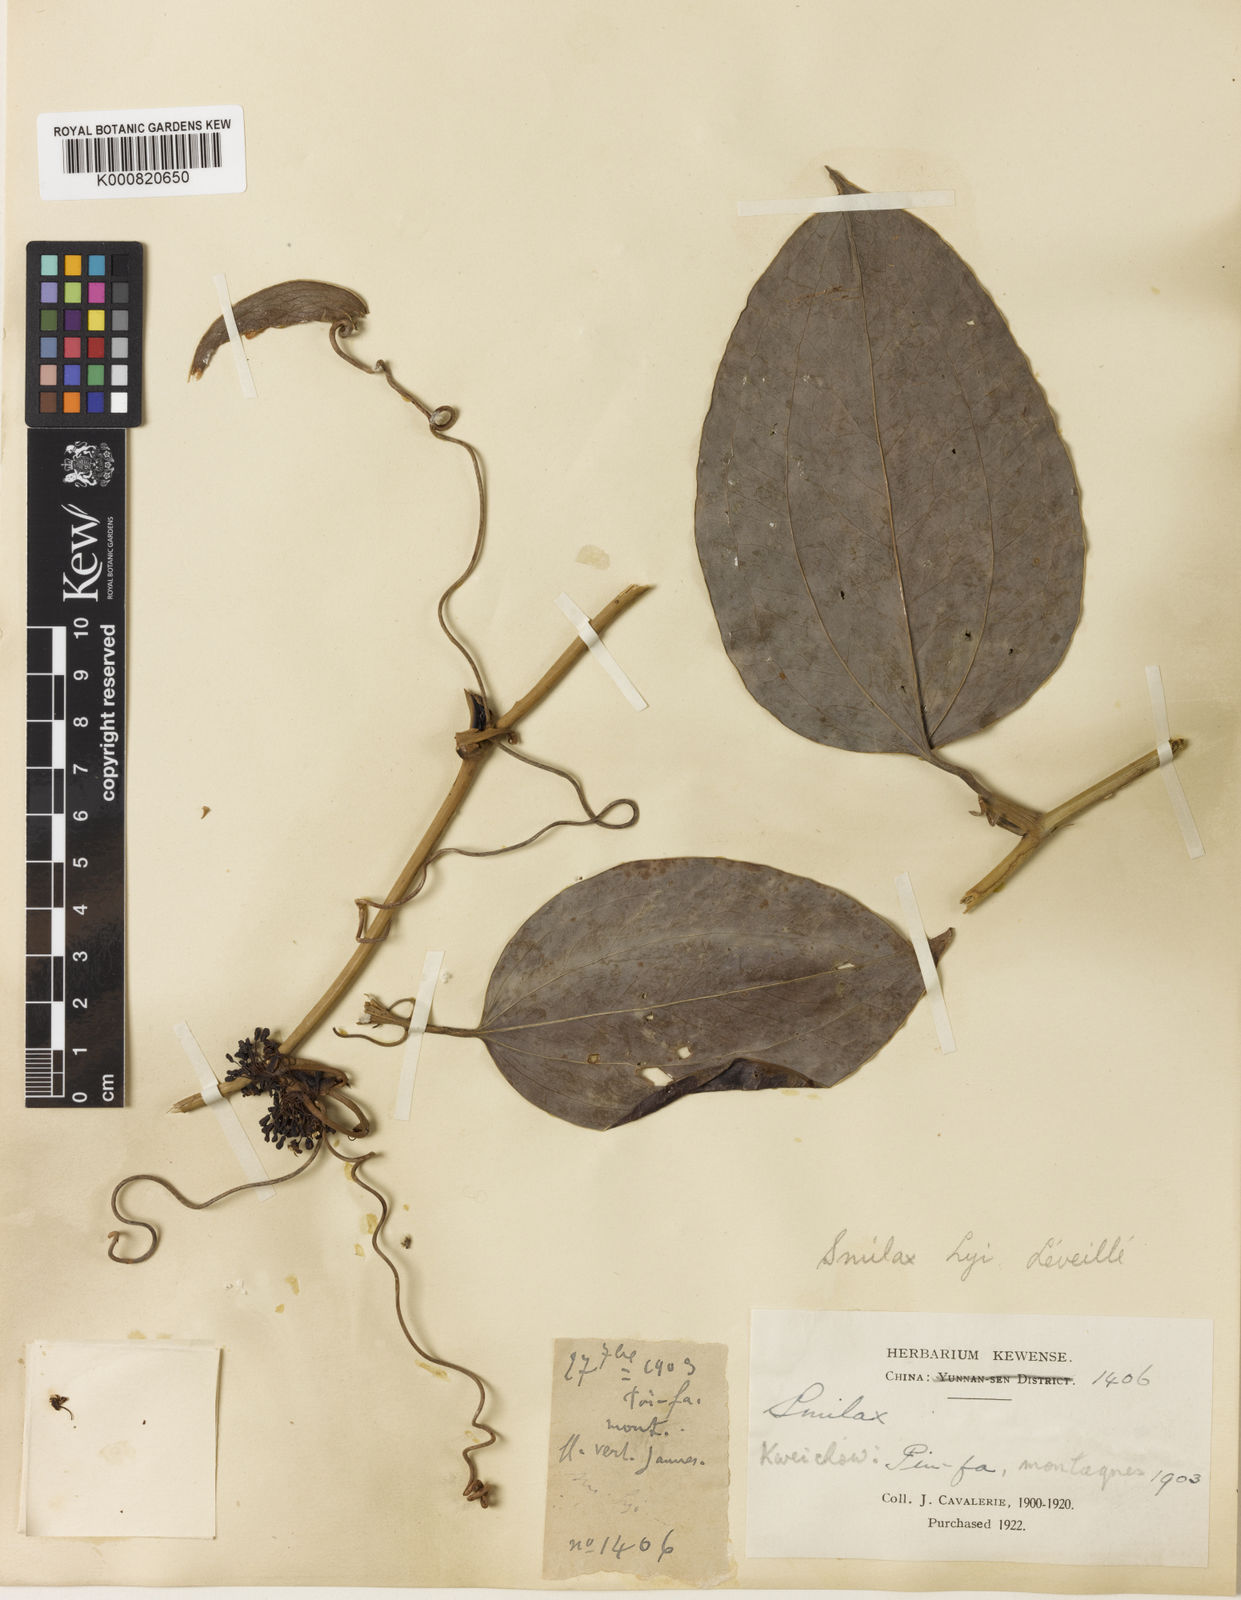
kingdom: Plantae
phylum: Tracheophyta
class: Liliopsida
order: Liliales
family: Smilacaceae
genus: Smilax
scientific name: Smilax
